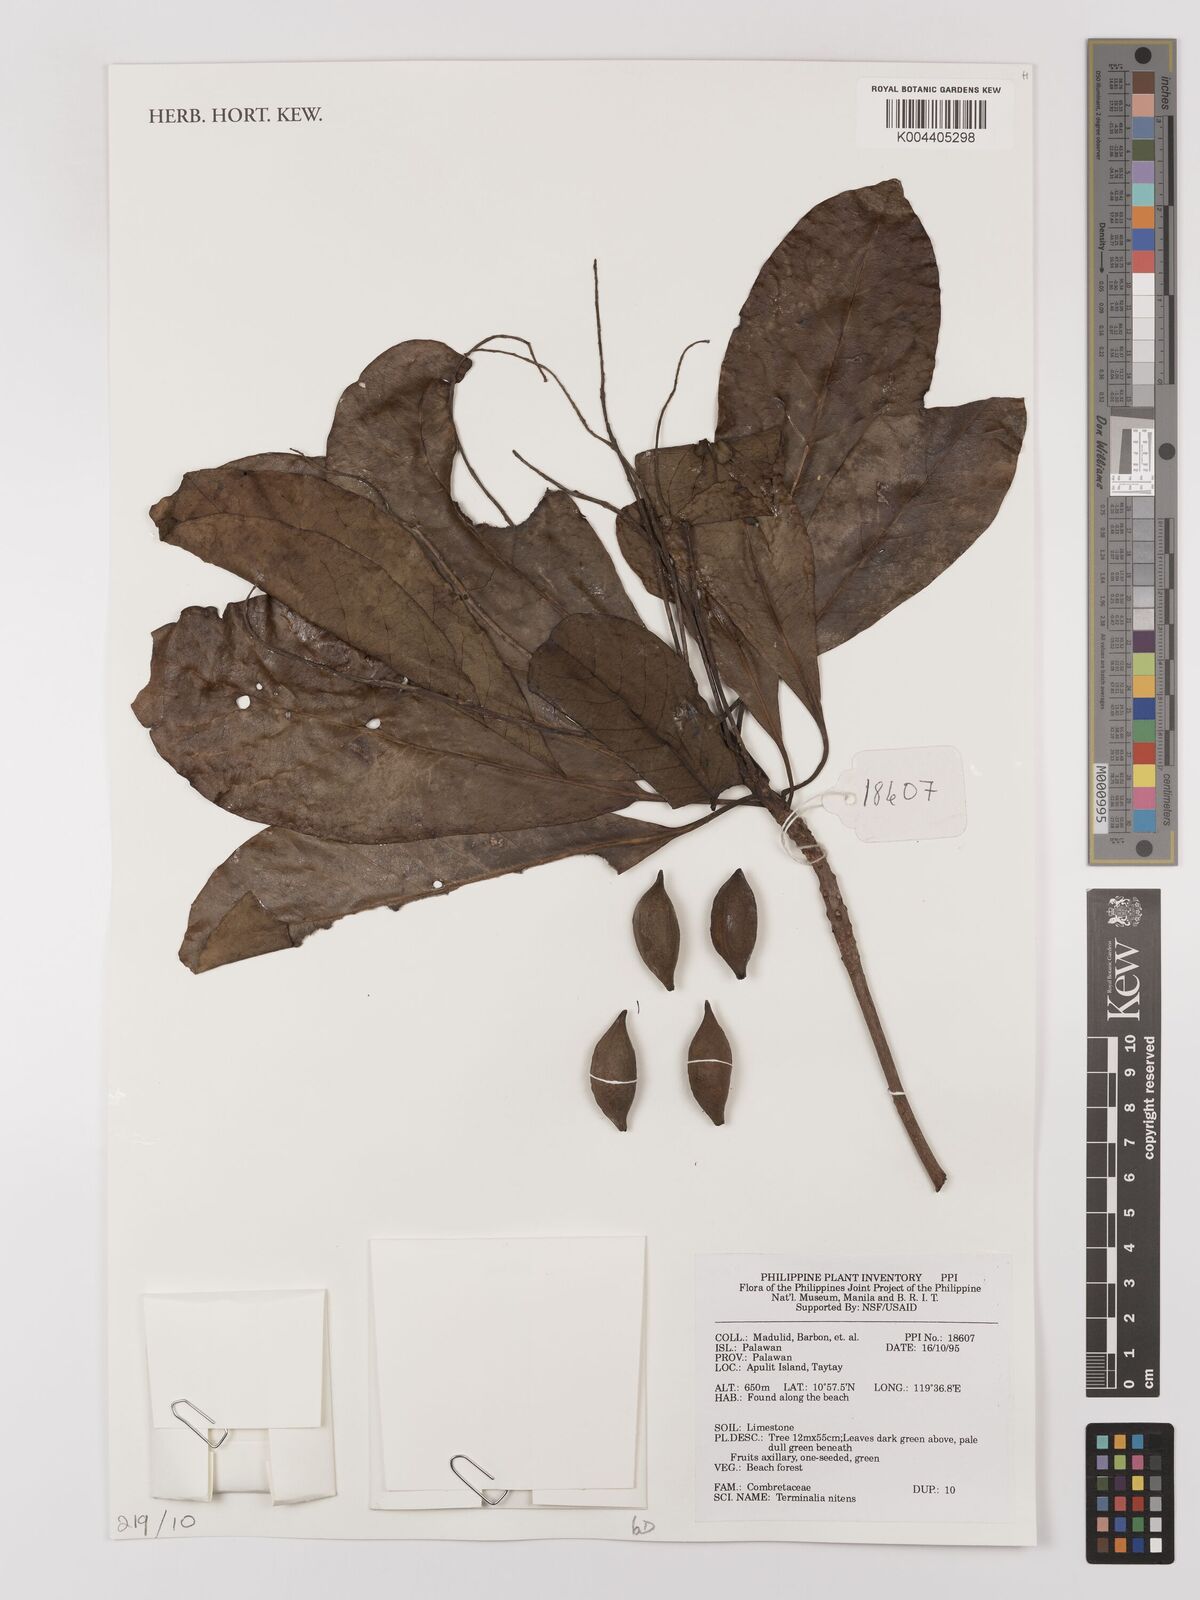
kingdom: Plantae
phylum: Tracheophyta
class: Magnoliopsida
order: Myrtales
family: Combretaceae
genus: Terminalia
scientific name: Terminalia nitens
